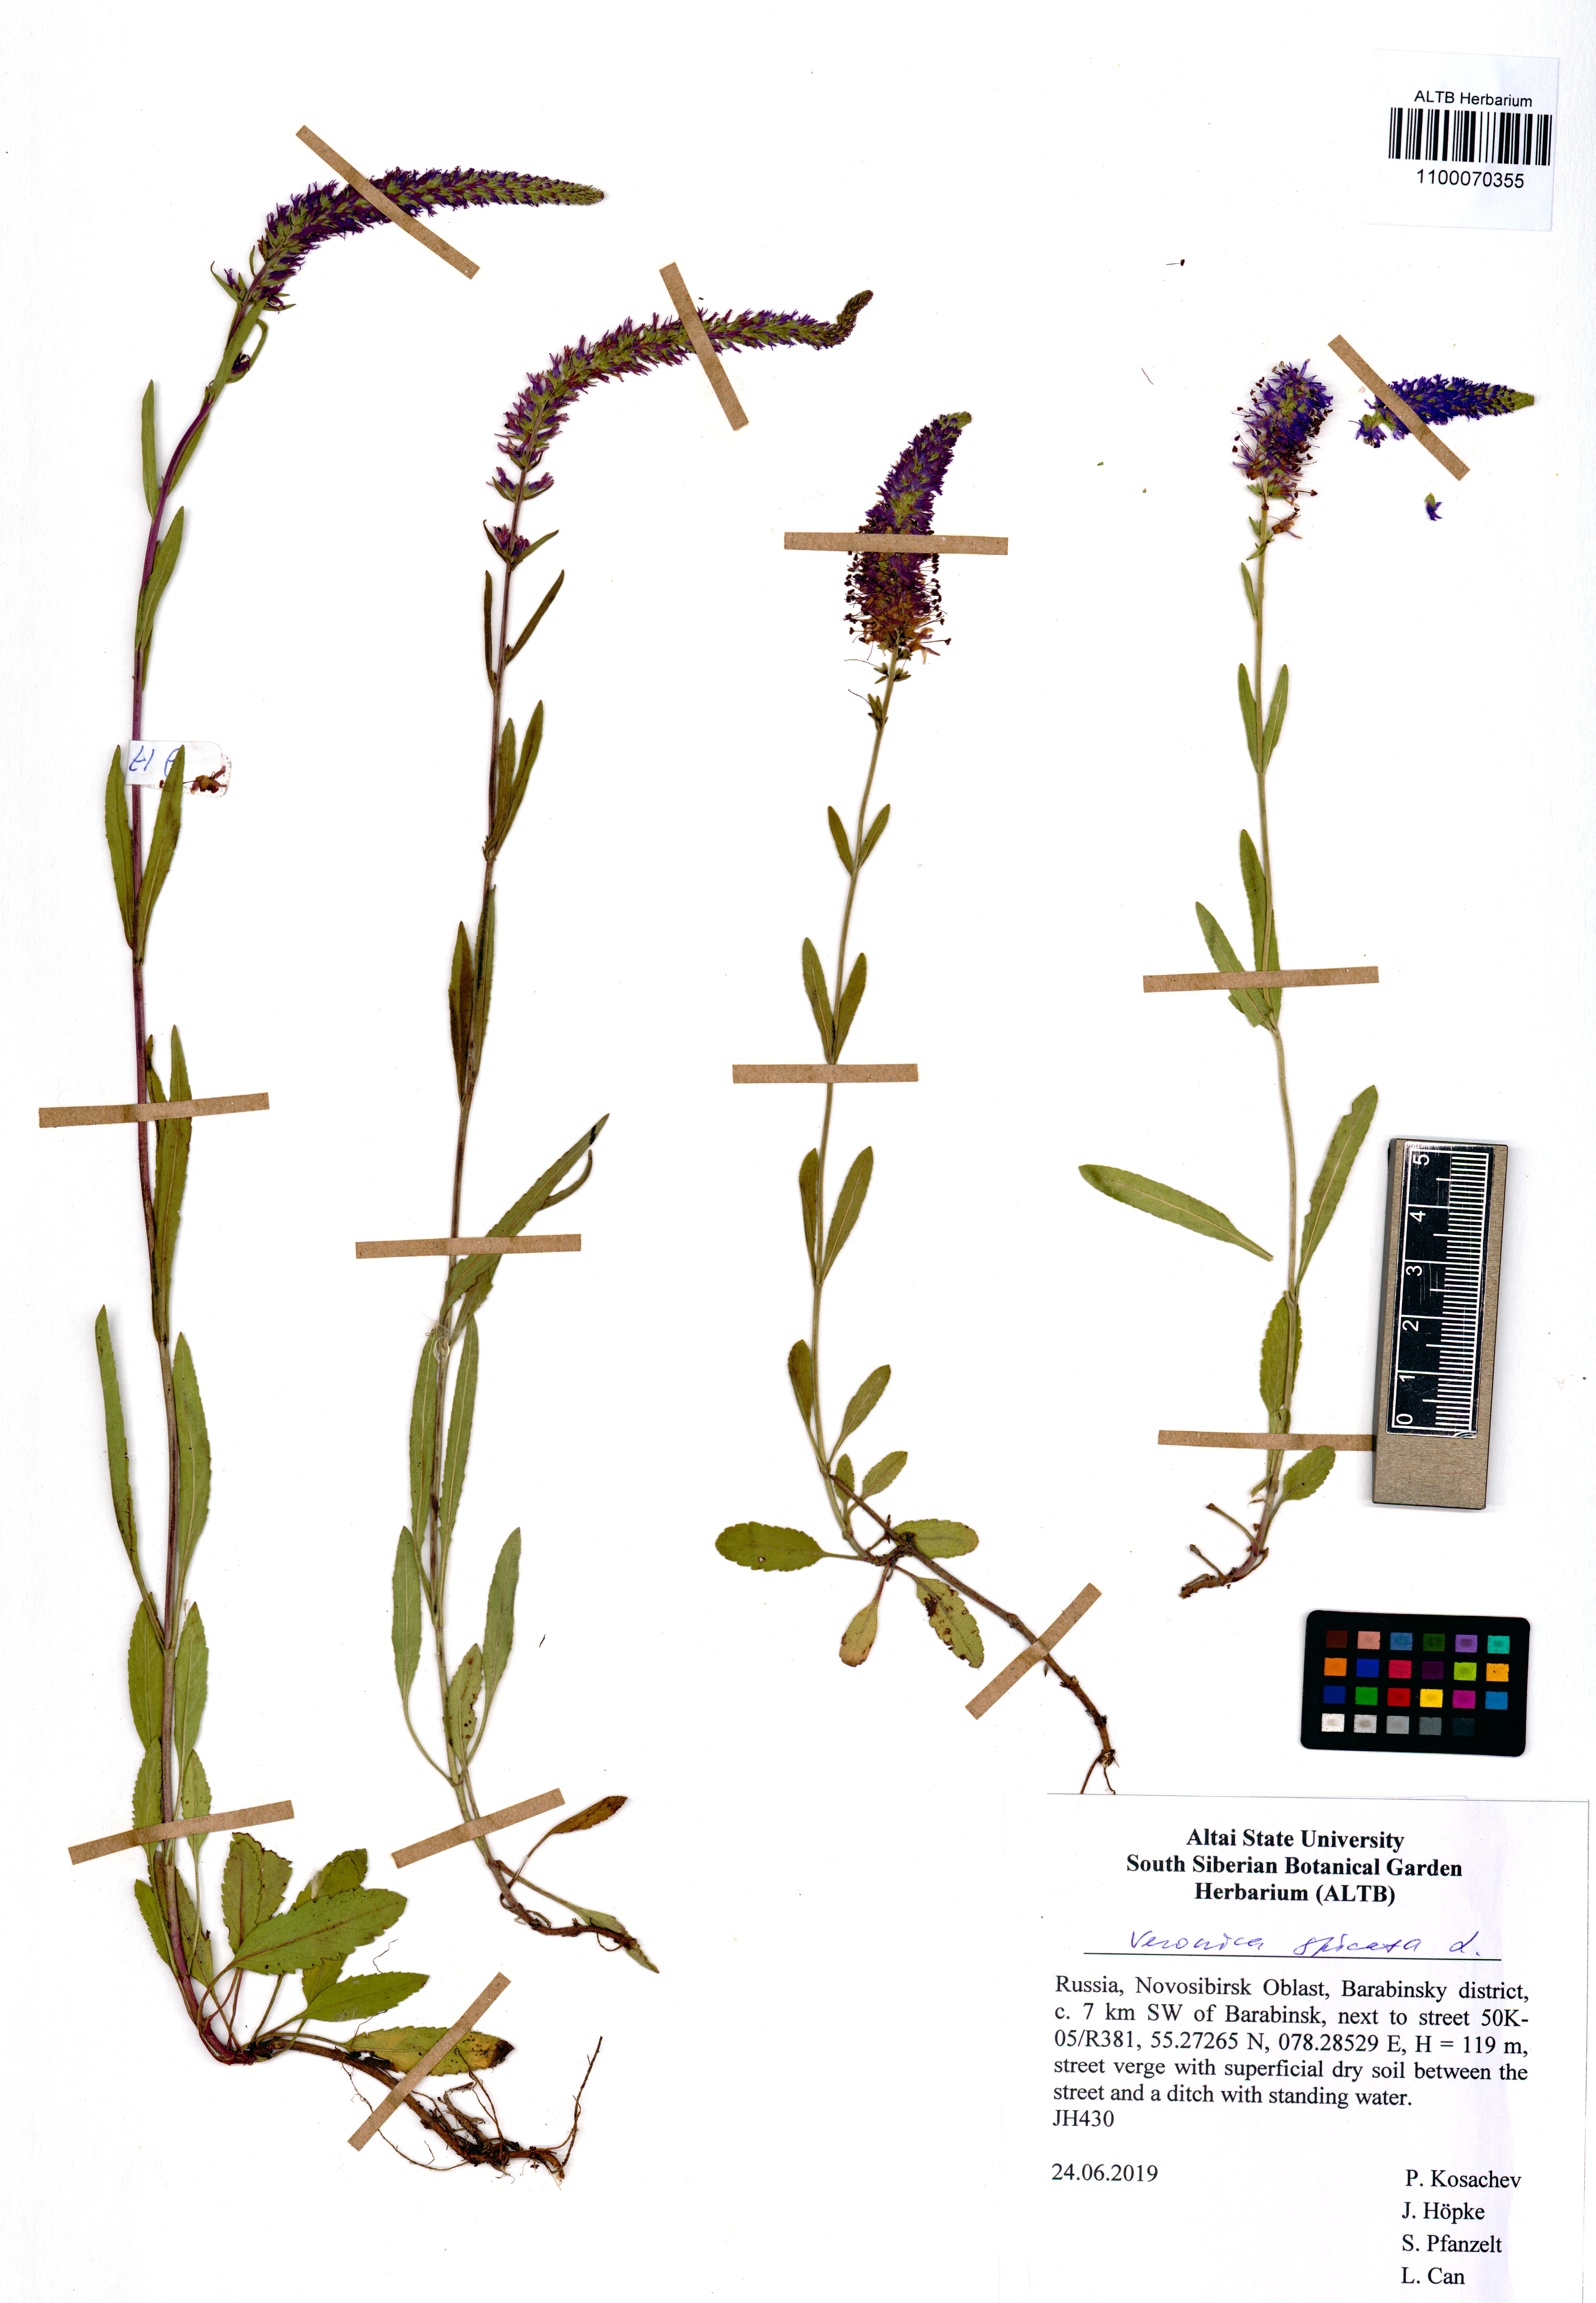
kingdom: Plantae
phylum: Tracheophyta
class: Magnoliopsida
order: Lamiales
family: Plantaginaceae
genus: Veronica
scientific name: Veronica spicata
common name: Spiked speedwell
